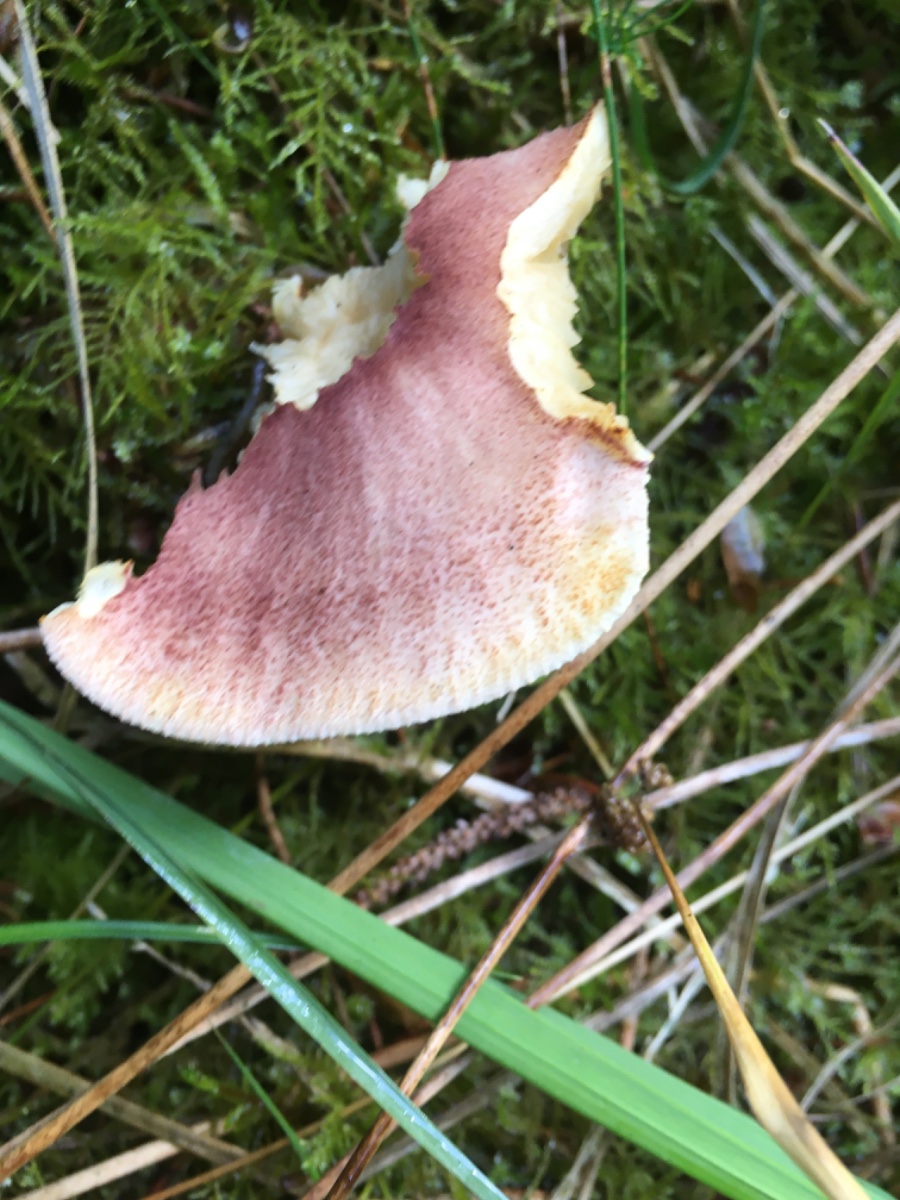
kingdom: Fungi
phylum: Basidiomycota
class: Agaricomycetes
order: Agaricales
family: Tricholomataceae
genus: Tricholomopsis
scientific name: Tricholomopsis rutilans
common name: purpur-væbnerhat
